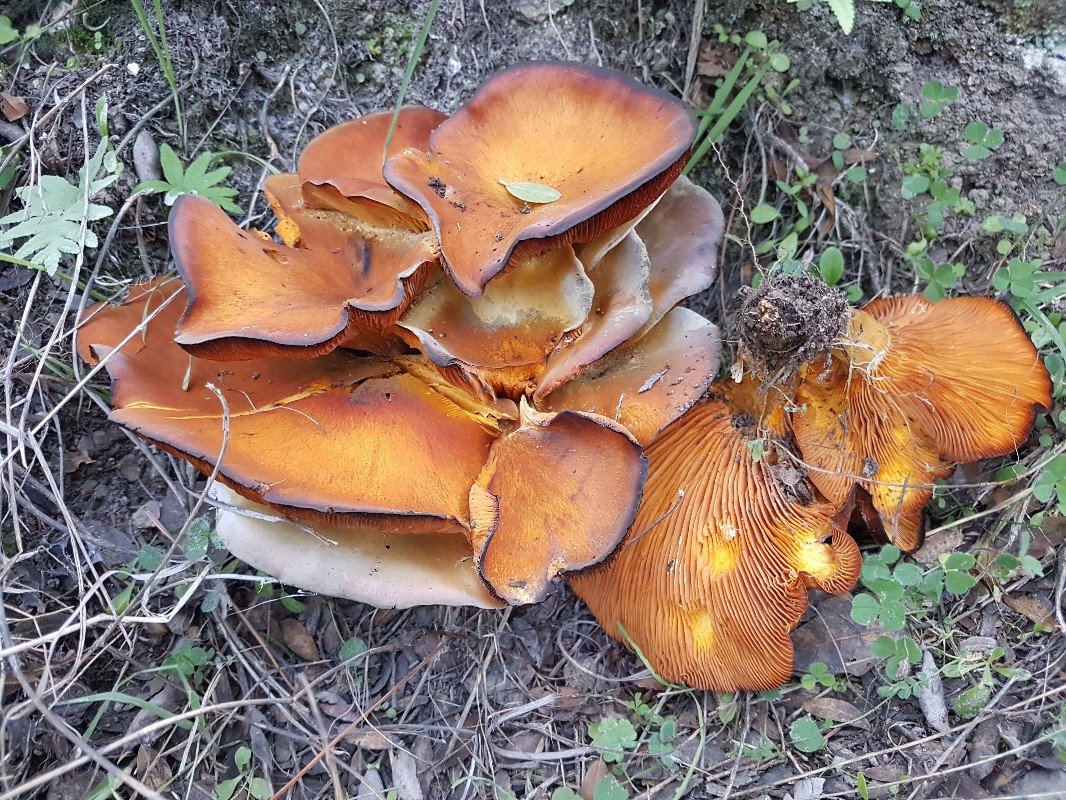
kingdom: Fungi
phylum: Basidiomycota
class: Agaricomycetes
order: Agaricales
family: Omphalotaceae
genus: Omphalotus
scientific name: Omphalotus olearius
